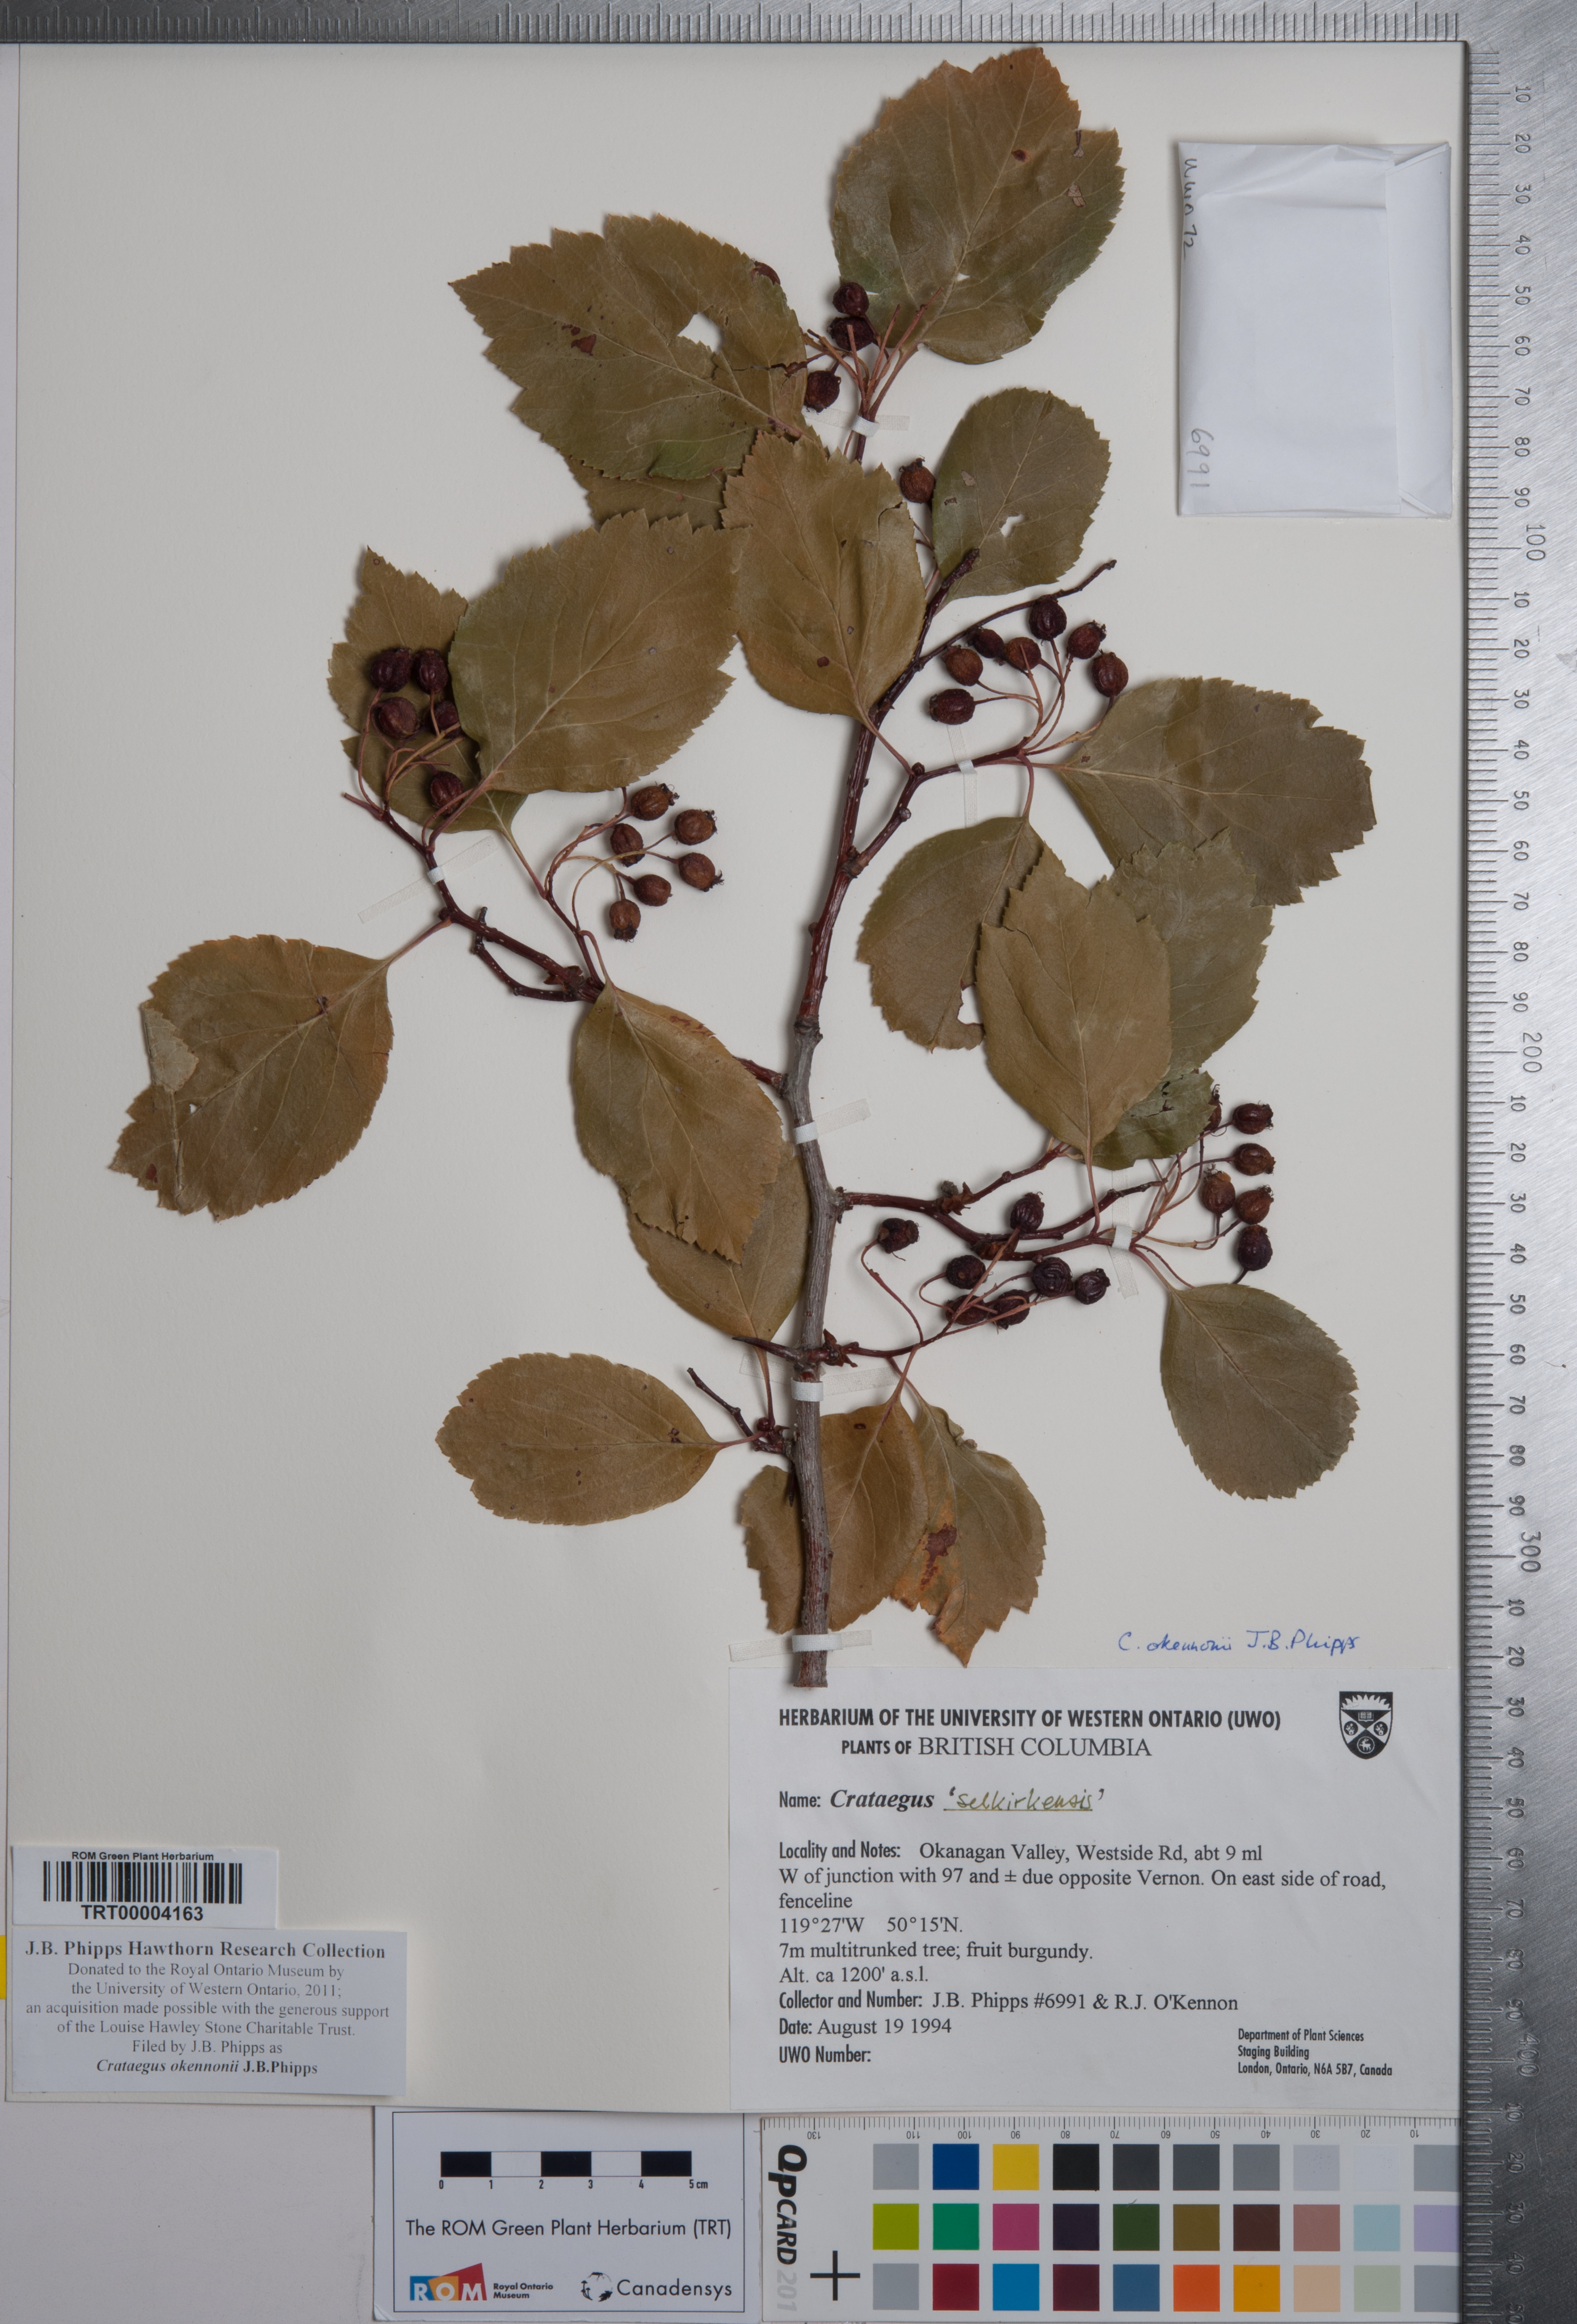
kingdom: Plantae
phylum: Tracheophyta
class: Magnoliopsida
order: Rosales
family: Rosaceae
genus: Crataegus
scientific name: Crataegus okennonii
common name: O'kennon's hawthorn
